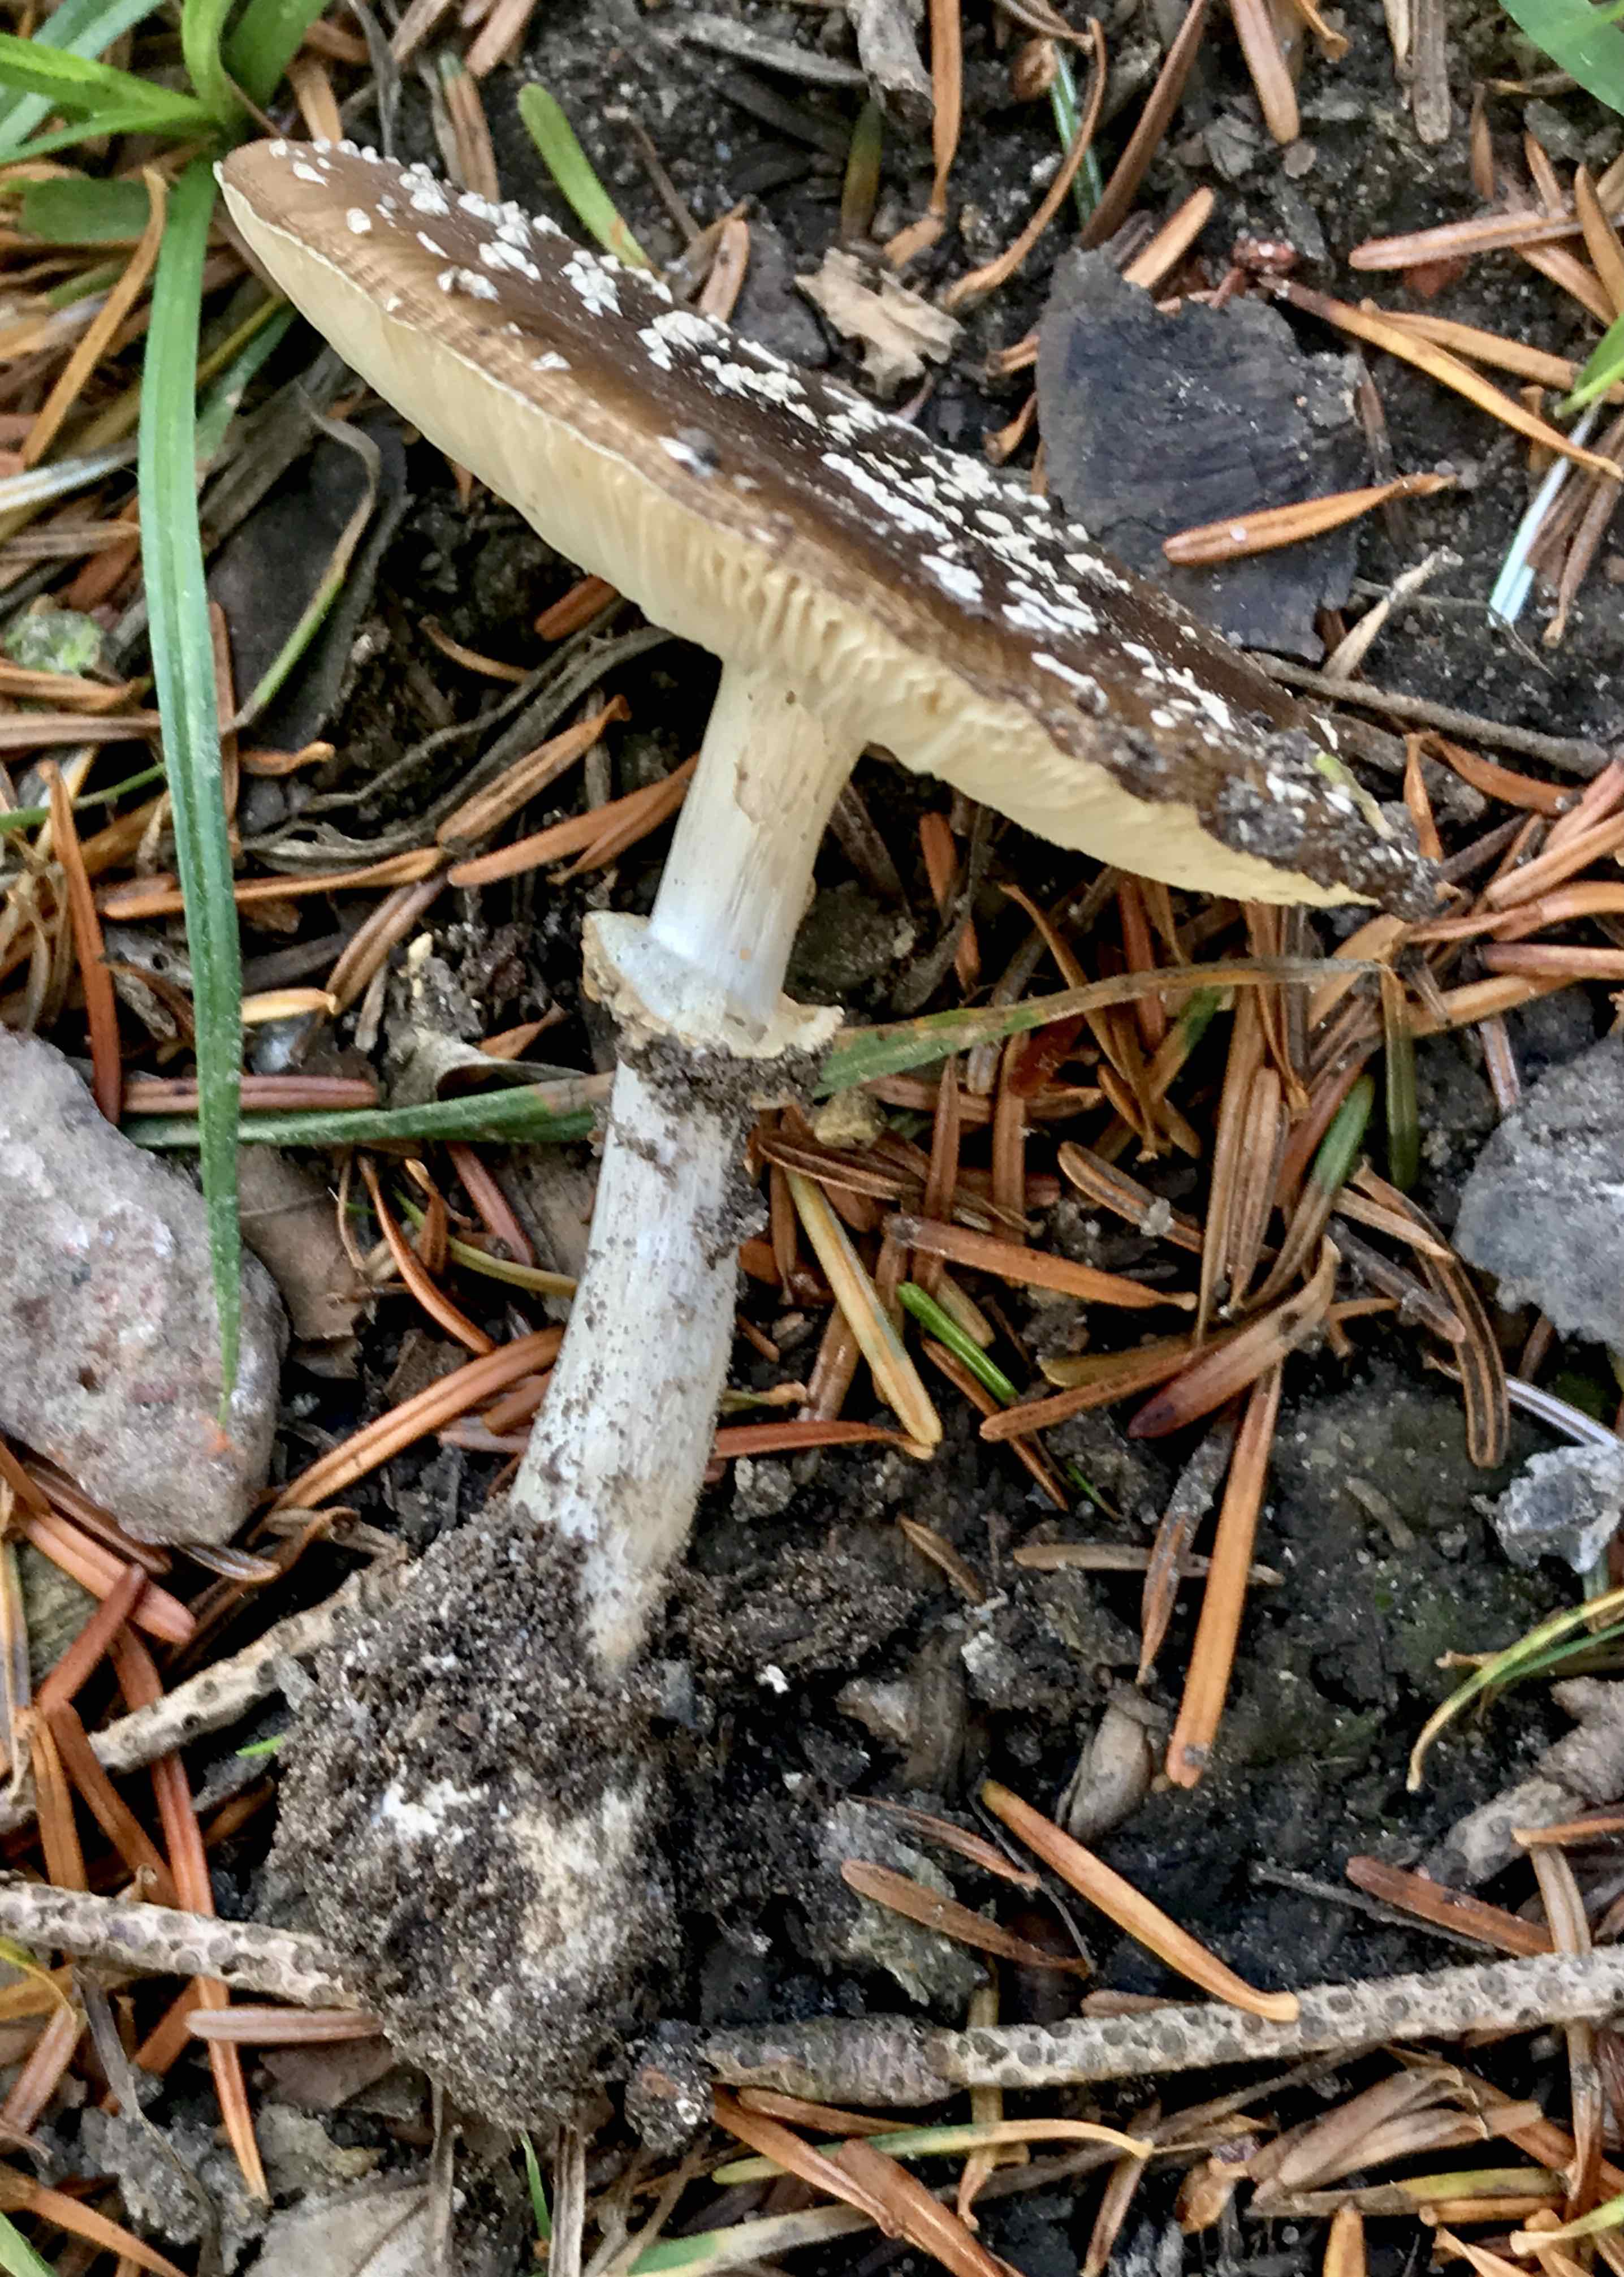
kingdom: Fungi
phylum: Basidiomycota
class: Agaricomycetes
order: Agaricales
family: Amanitaceae
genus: Amanita
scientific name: Amanita pantherina
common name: panter-fluesvamp
